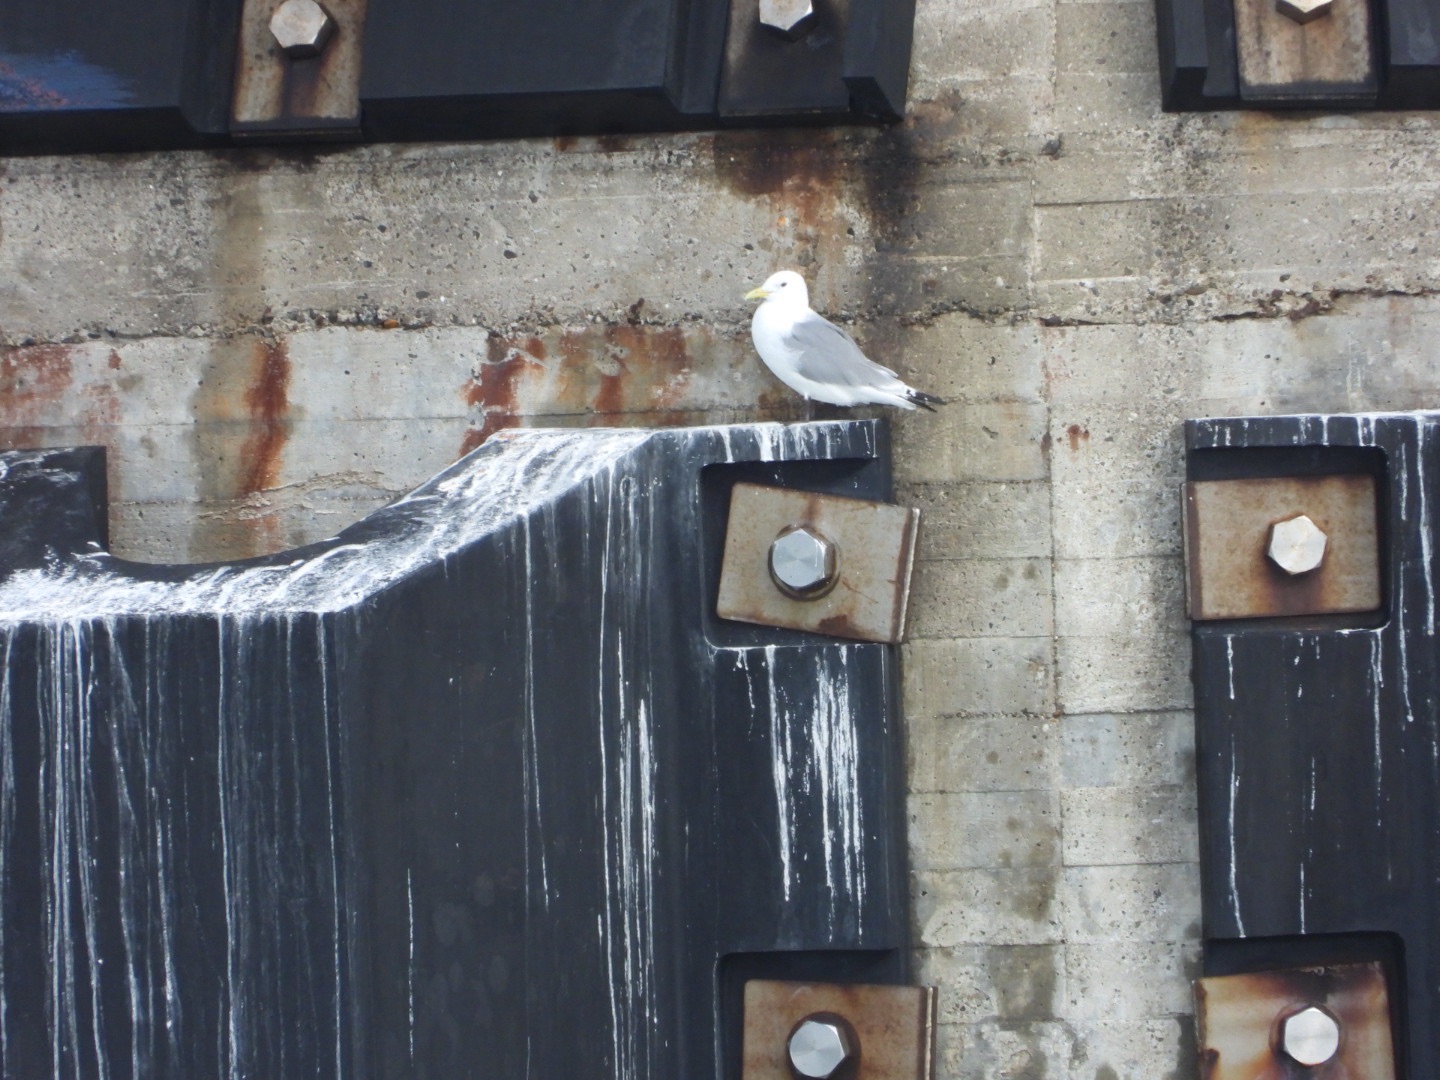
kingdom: Animalia
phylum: Chordata
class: Aves
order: Charadriiformes
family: Laridae
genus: Rissa
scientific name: Rissa tridactyla
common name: Ride
